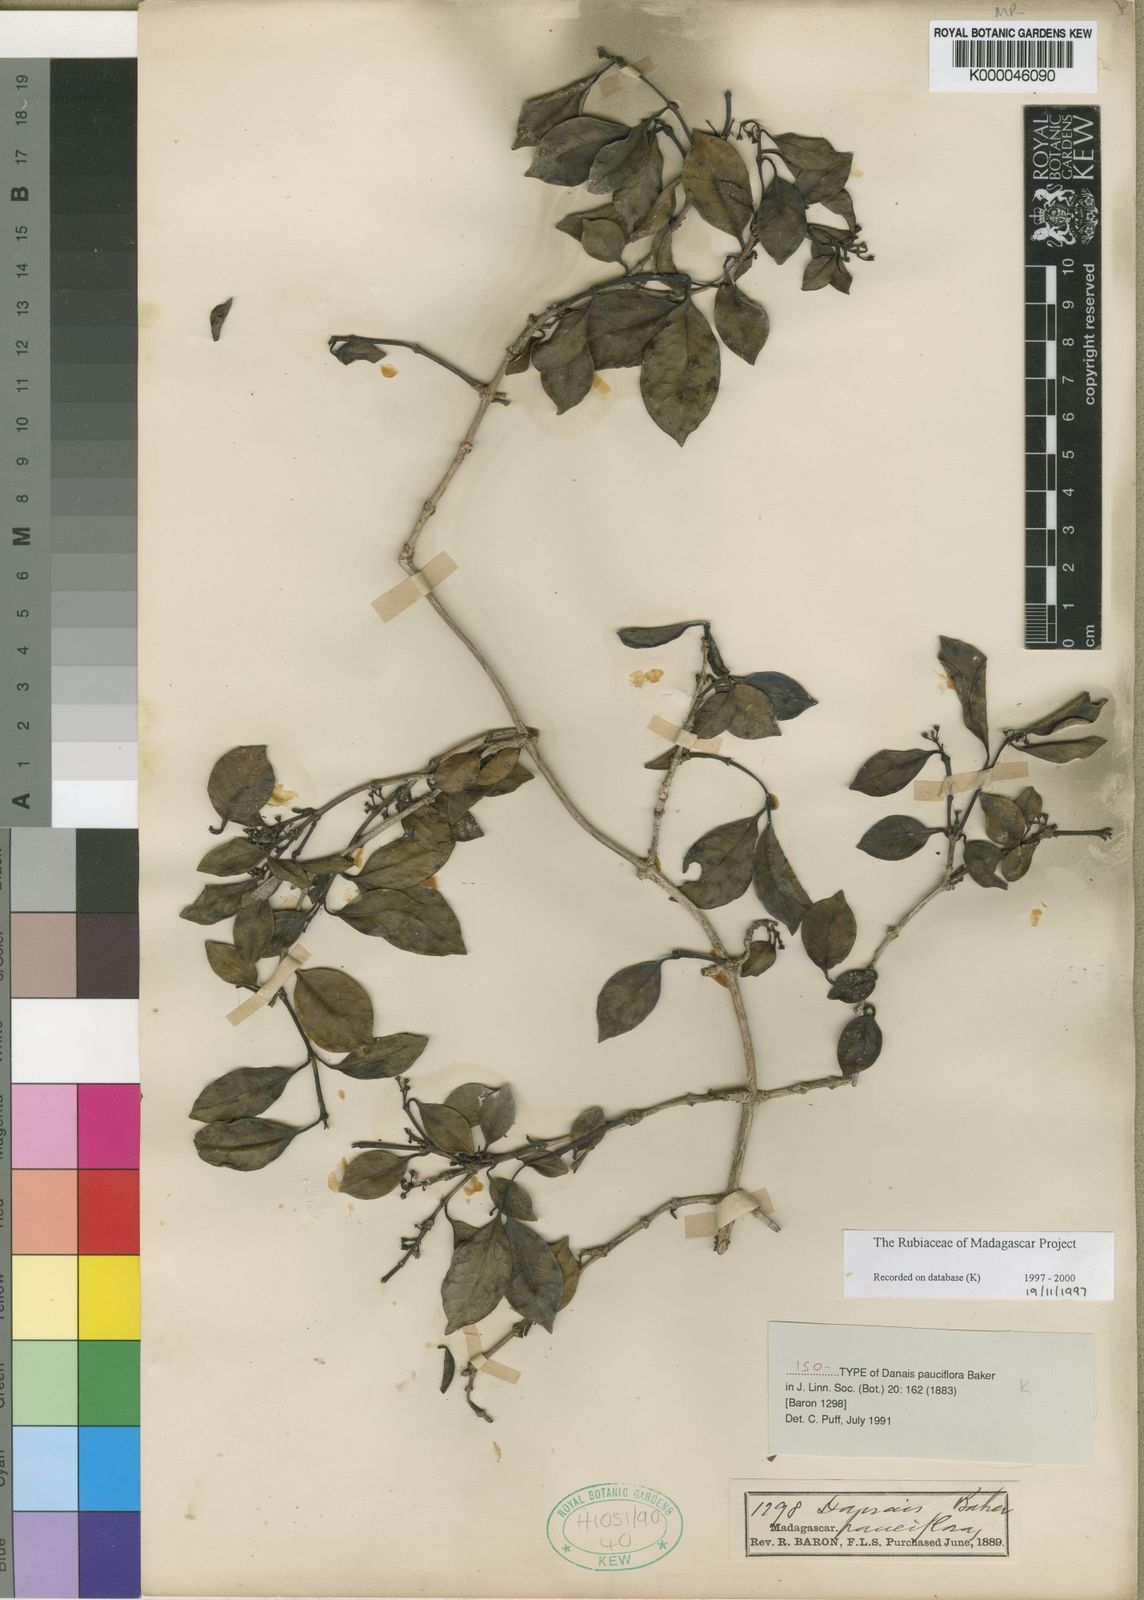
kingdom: Plantae
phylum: Tracheophyta
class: Magnoliopsida
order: Gentianales
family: Rubiaceae
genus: Danais
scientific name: Danais pauciflora
